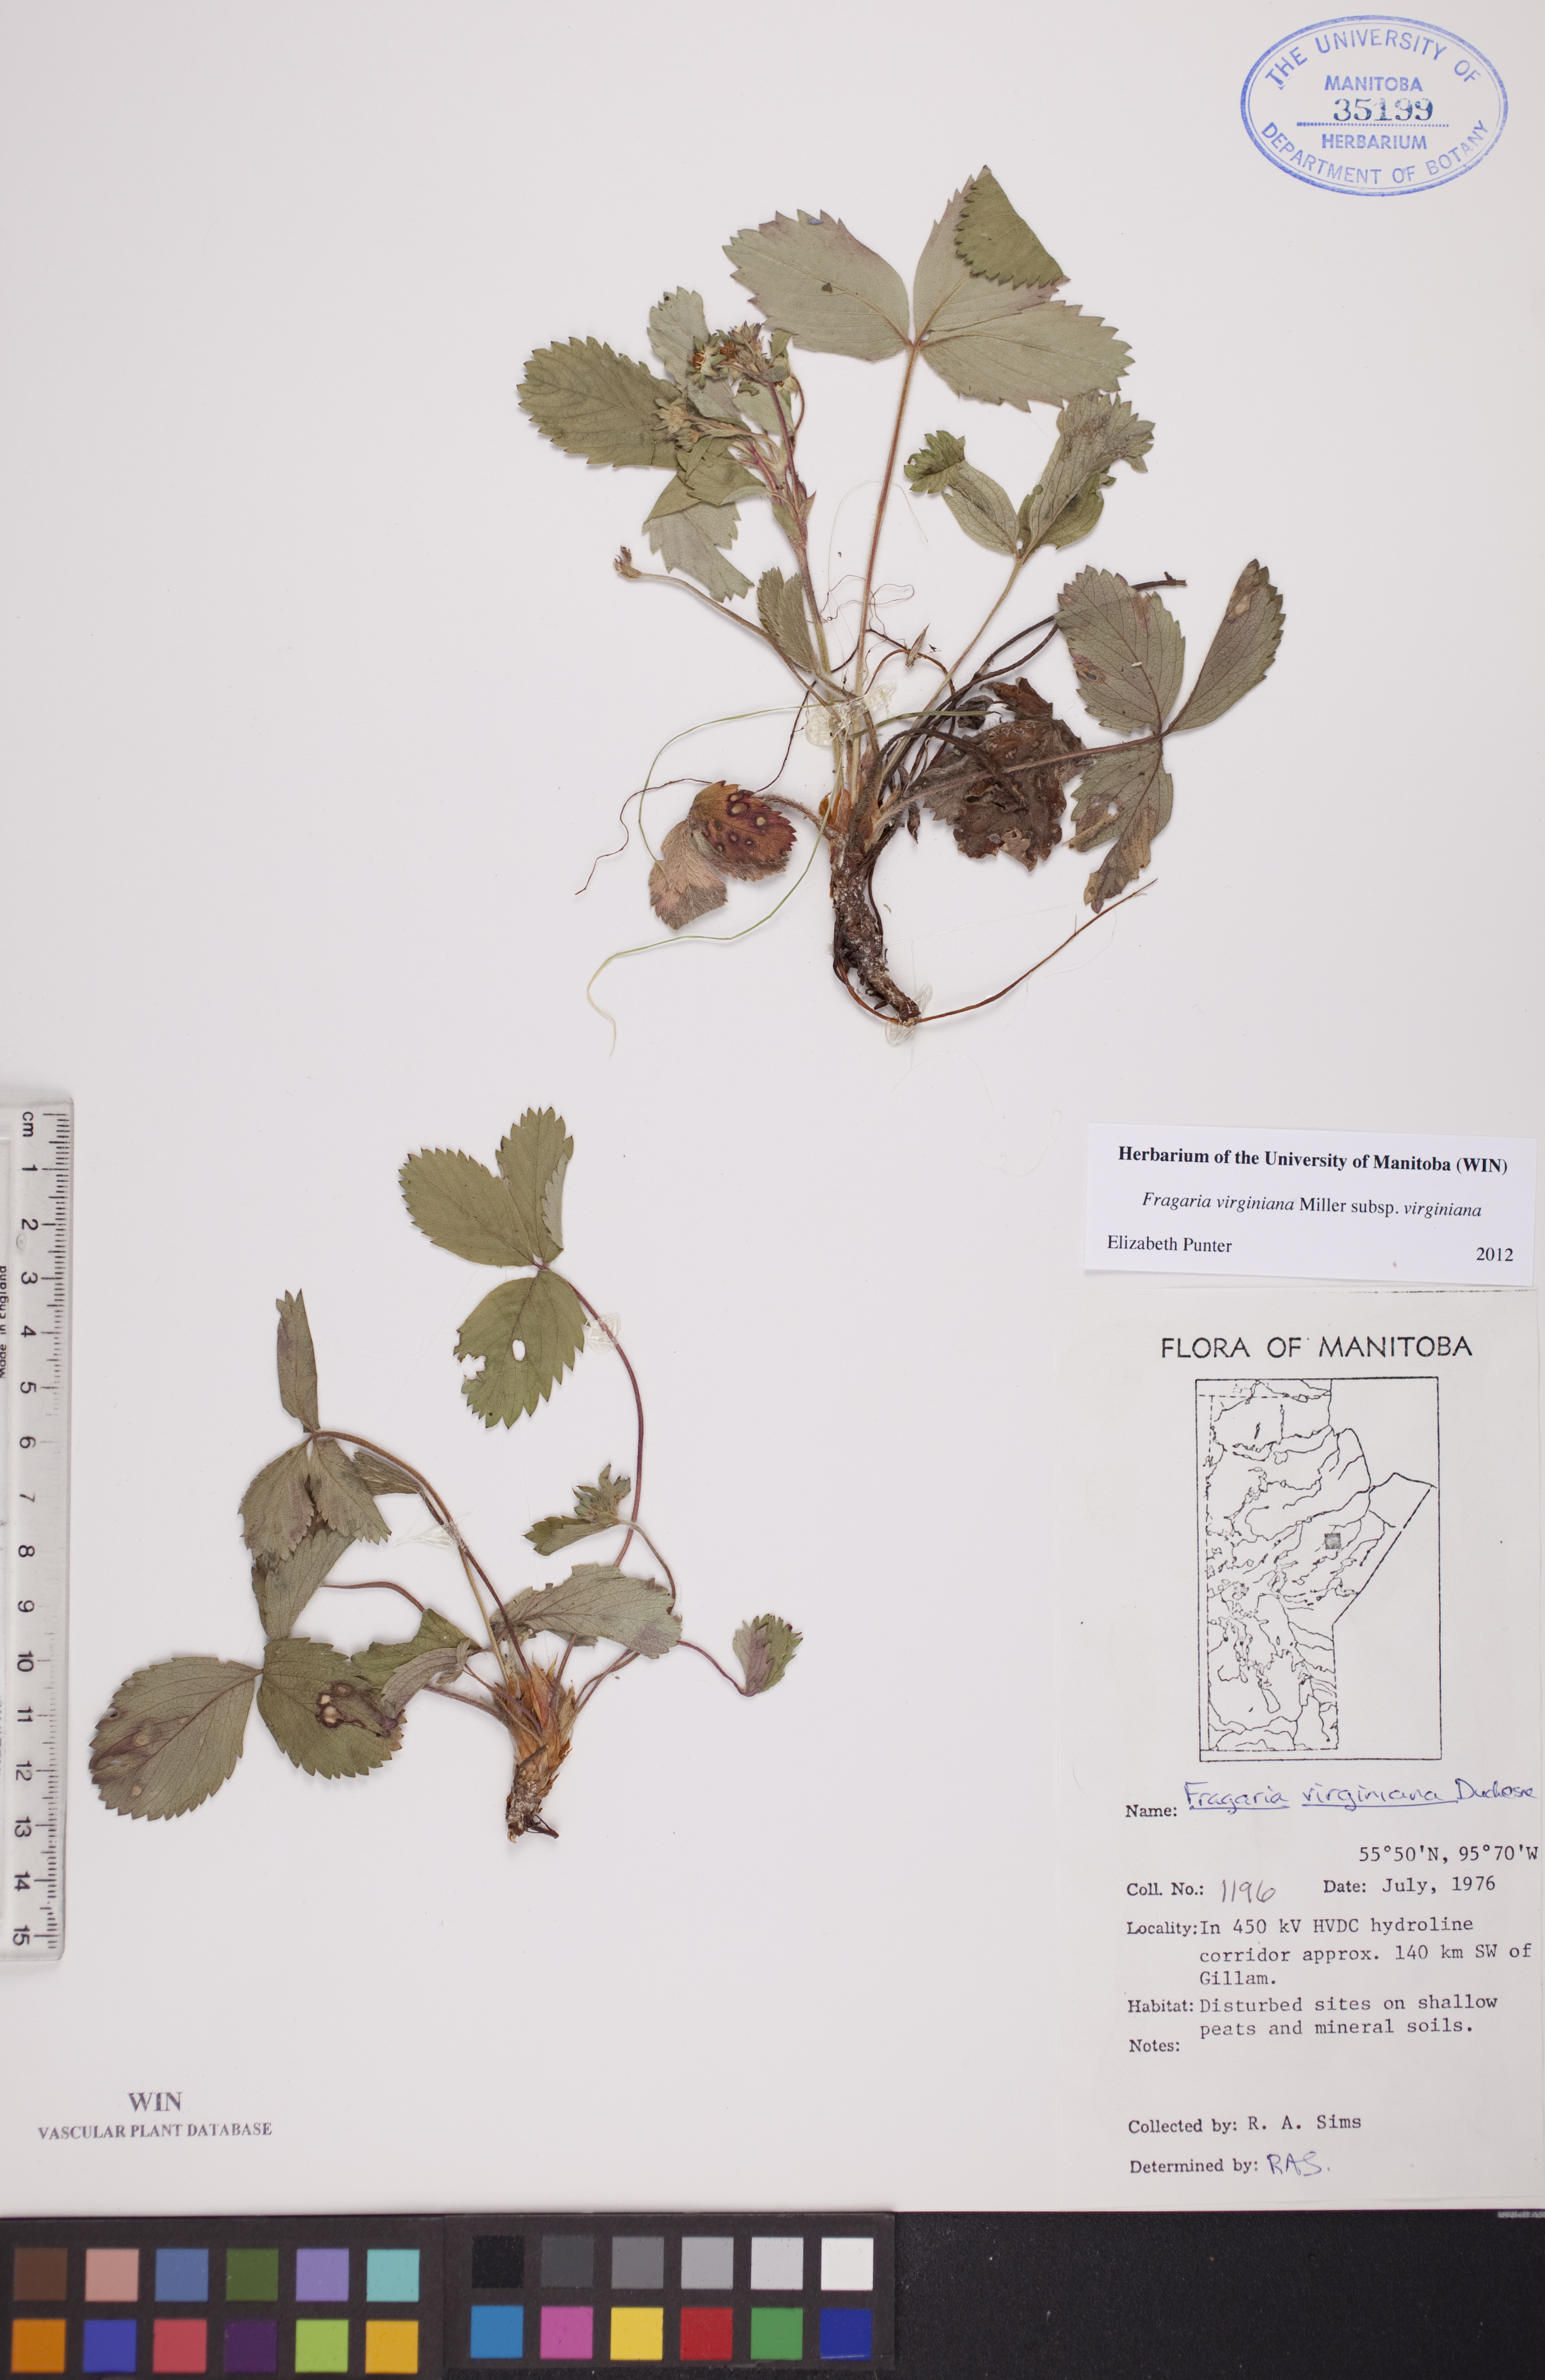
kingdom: Plantae
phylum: Tracheophyta
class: Magnoliopsida
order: Rosales
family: Rosaceae
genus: Fragaria
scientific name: Fragaria virginiana
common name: Thickleaved wild strawberry
